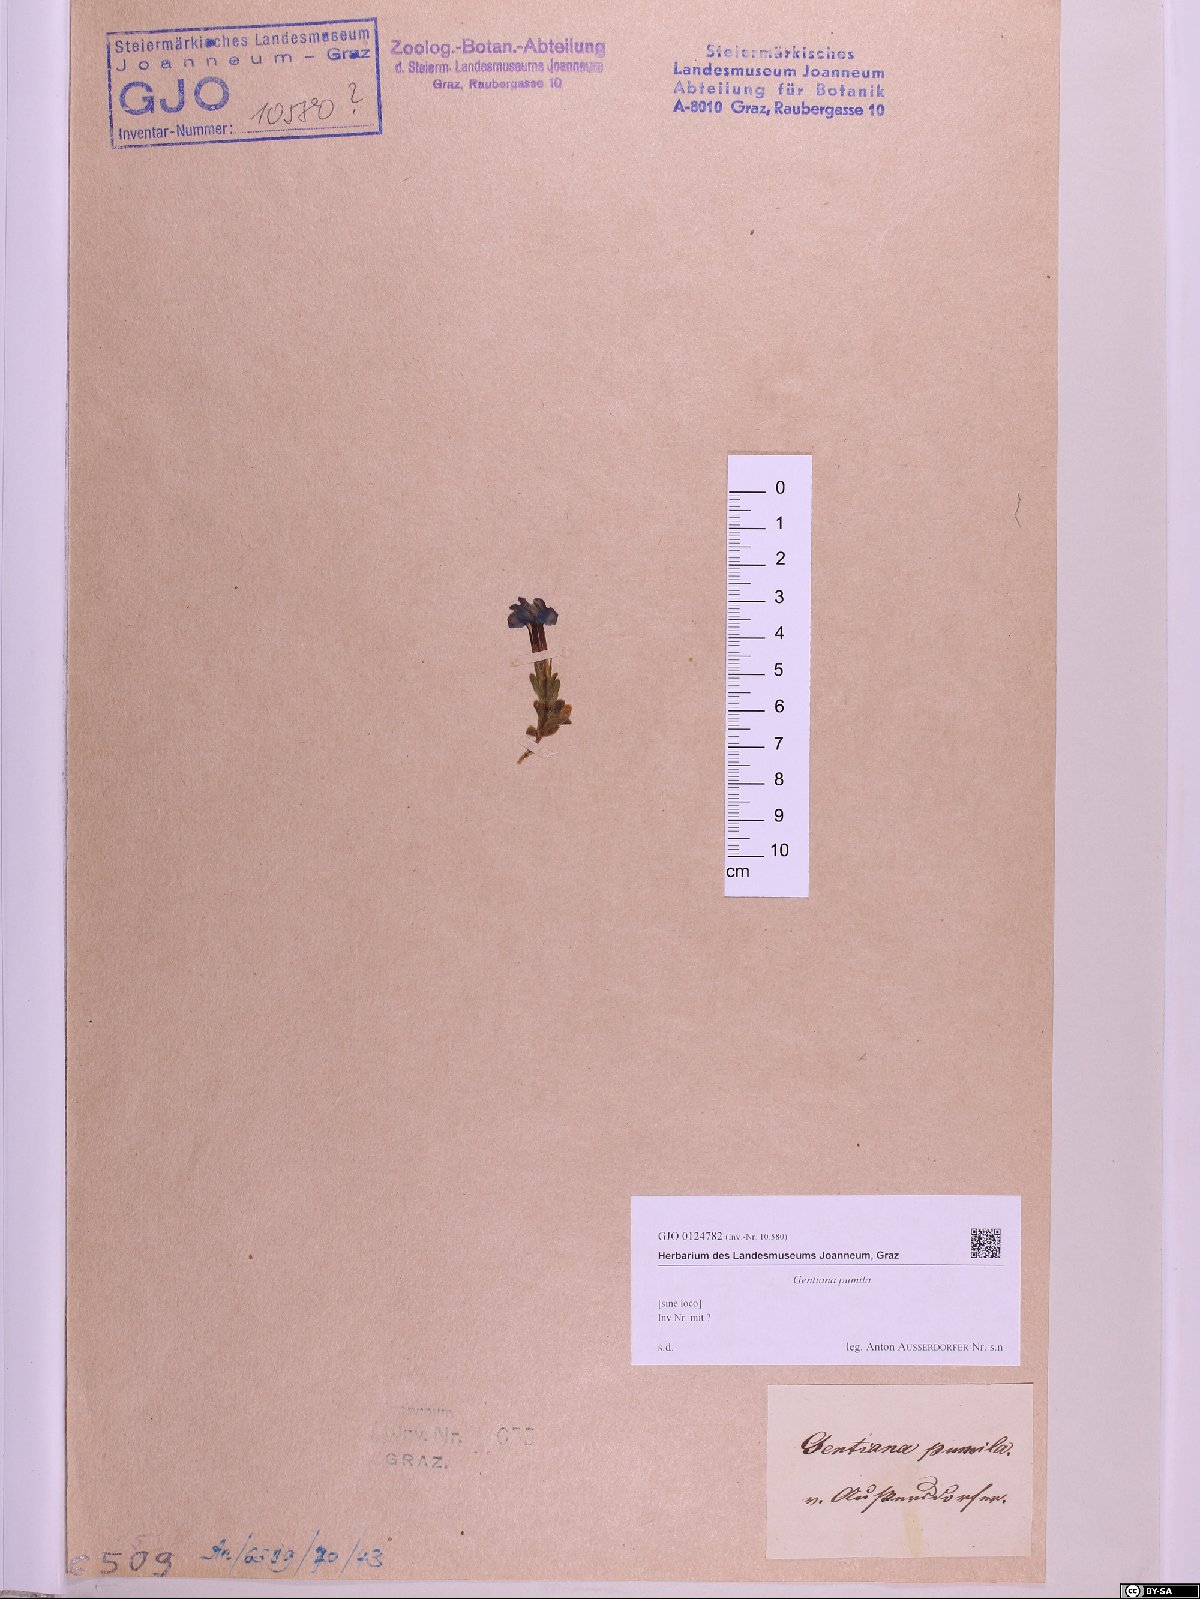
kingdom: Plantae
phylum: Tracheophyta
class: Magnoliopsida
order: Gentianales
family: Gentianaceae
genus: Gentiana
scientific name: Gentiana pumila
